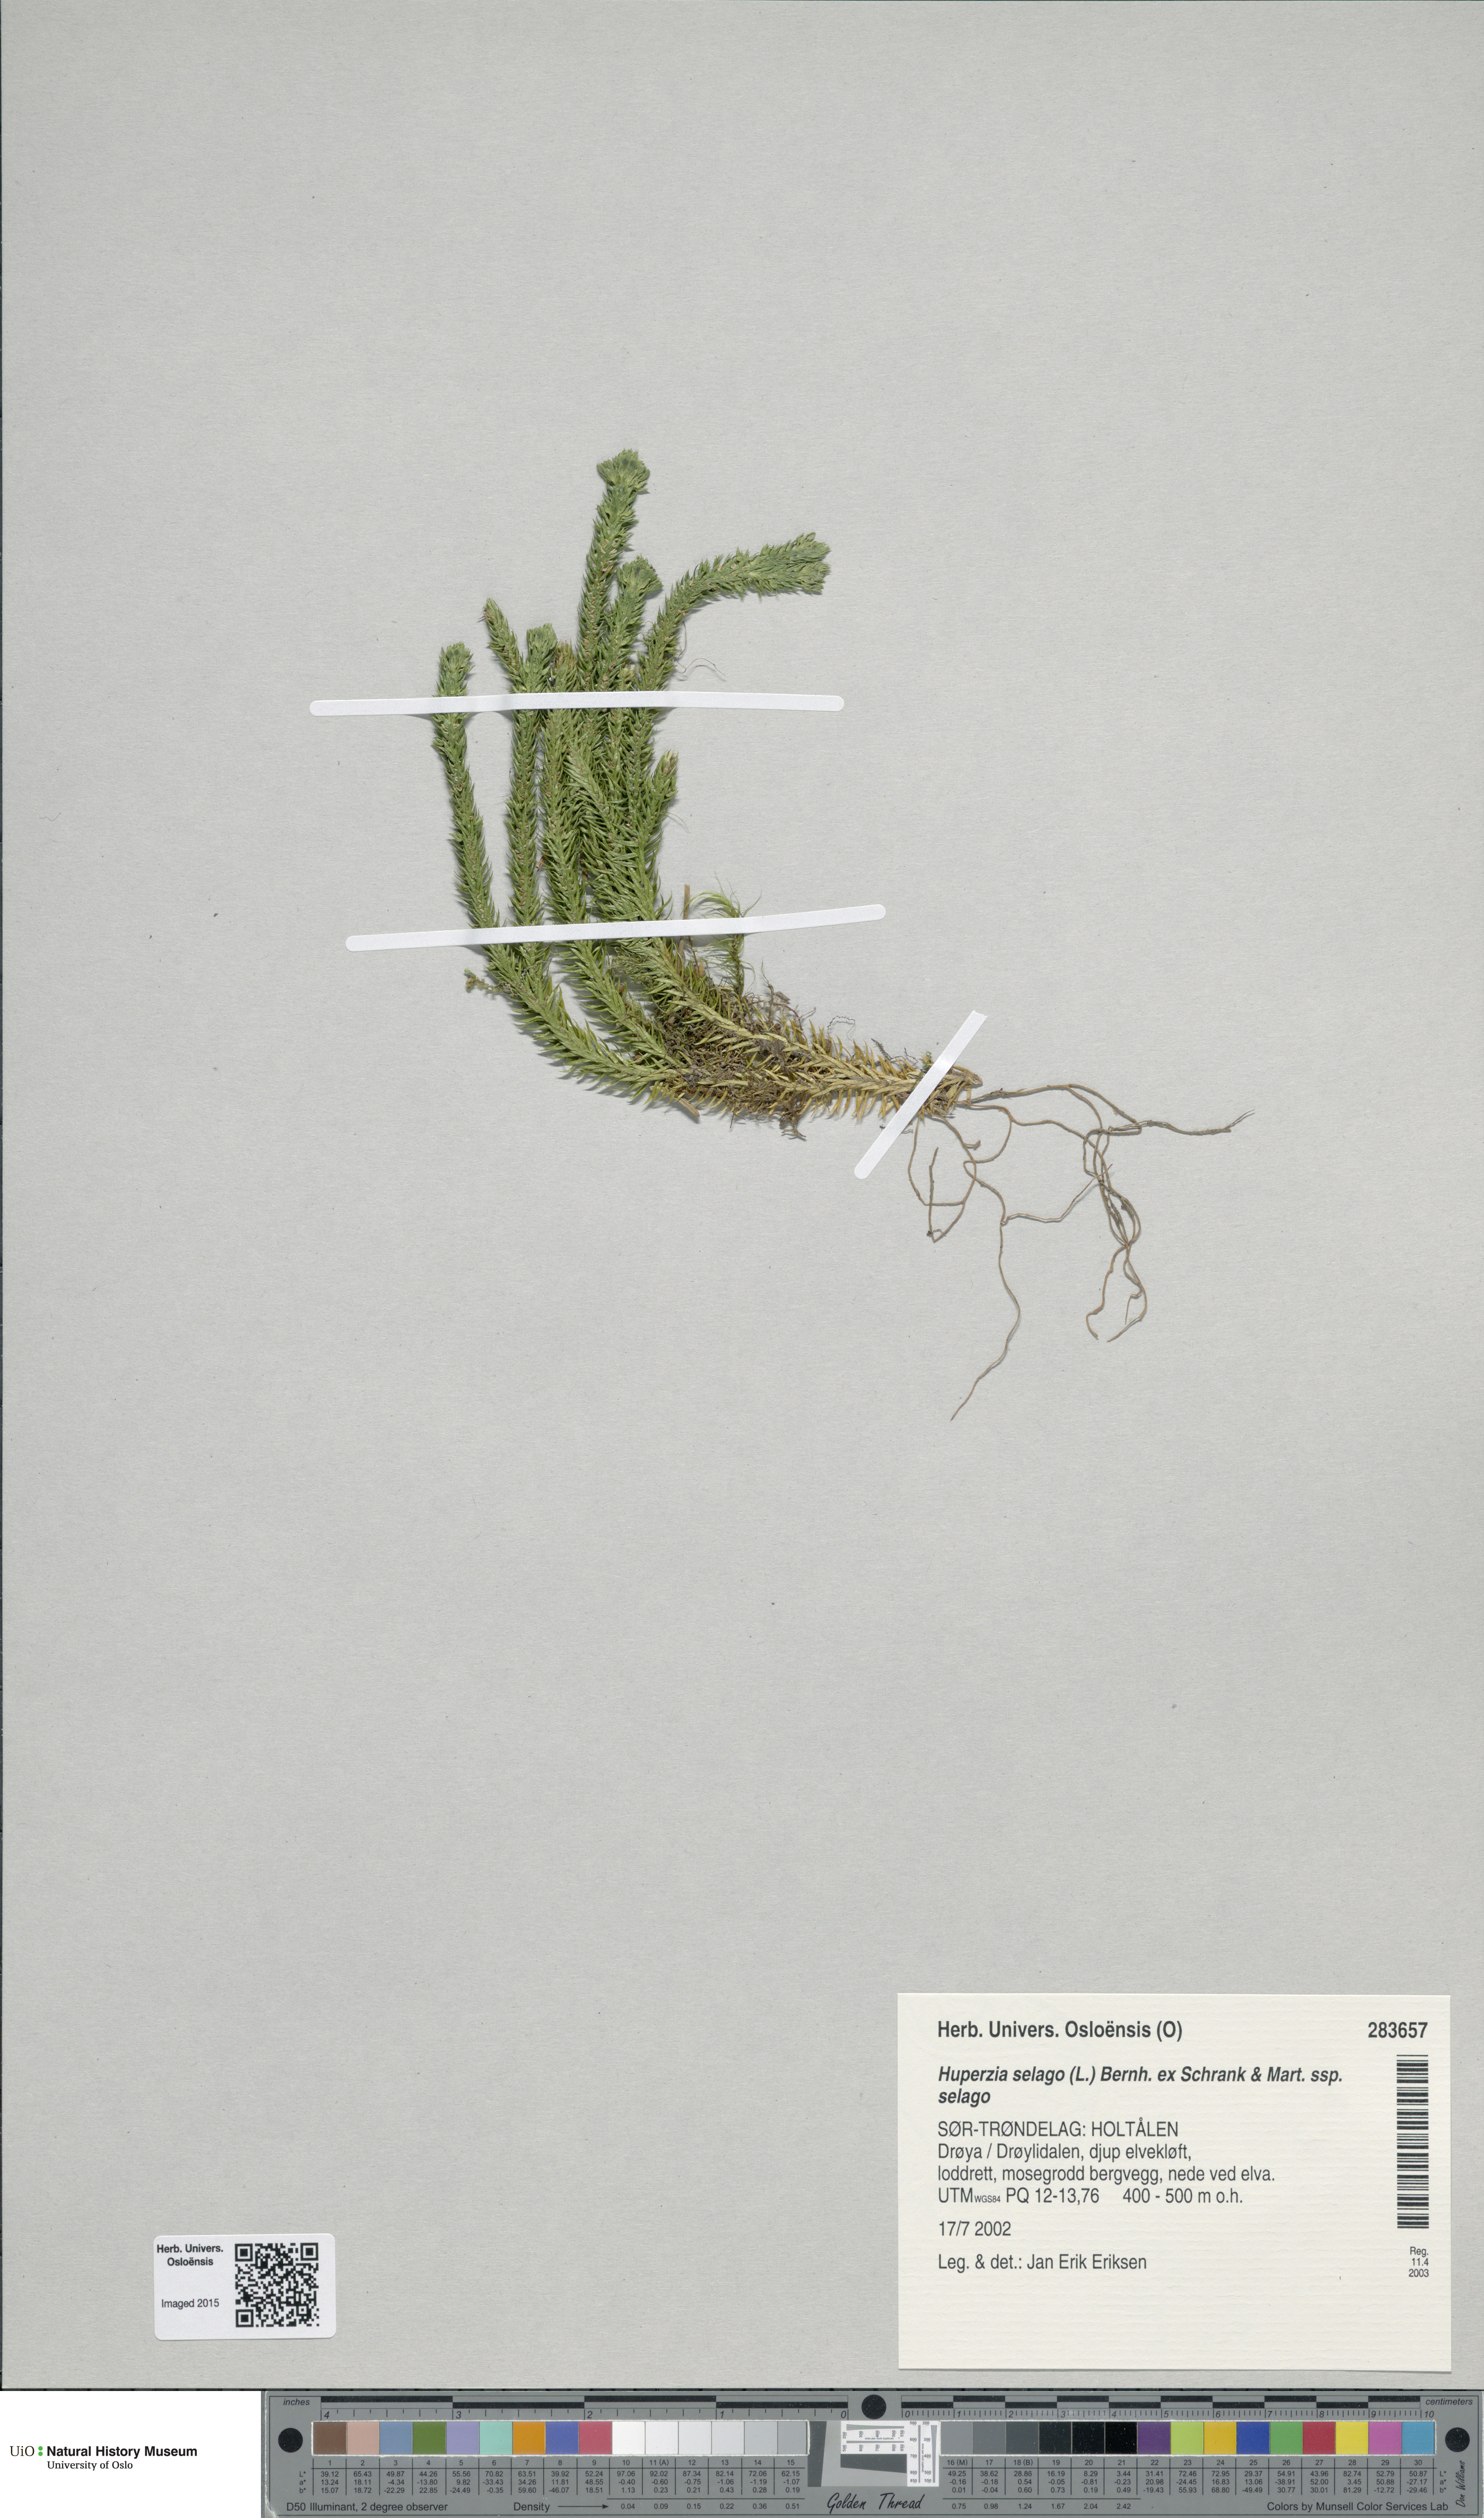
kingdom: Plantae
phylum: Tracheophyta
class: Lycopodiopsida
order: Lycopodiales
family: Lycopodiaceae
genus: Huperzia
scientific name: Huperzia selago
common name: Northern firmoss
